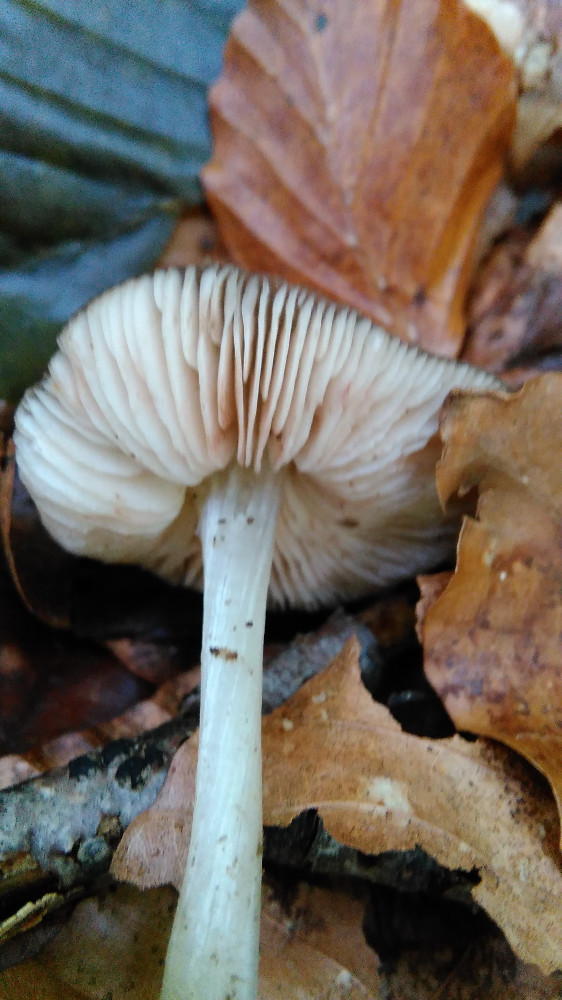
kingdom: Fungi
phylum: Basidiomycota
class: Agaricomycetes
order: Agaricales
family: Pluteaceae
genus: Pluteus
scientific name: Pluteus phlebophorus
